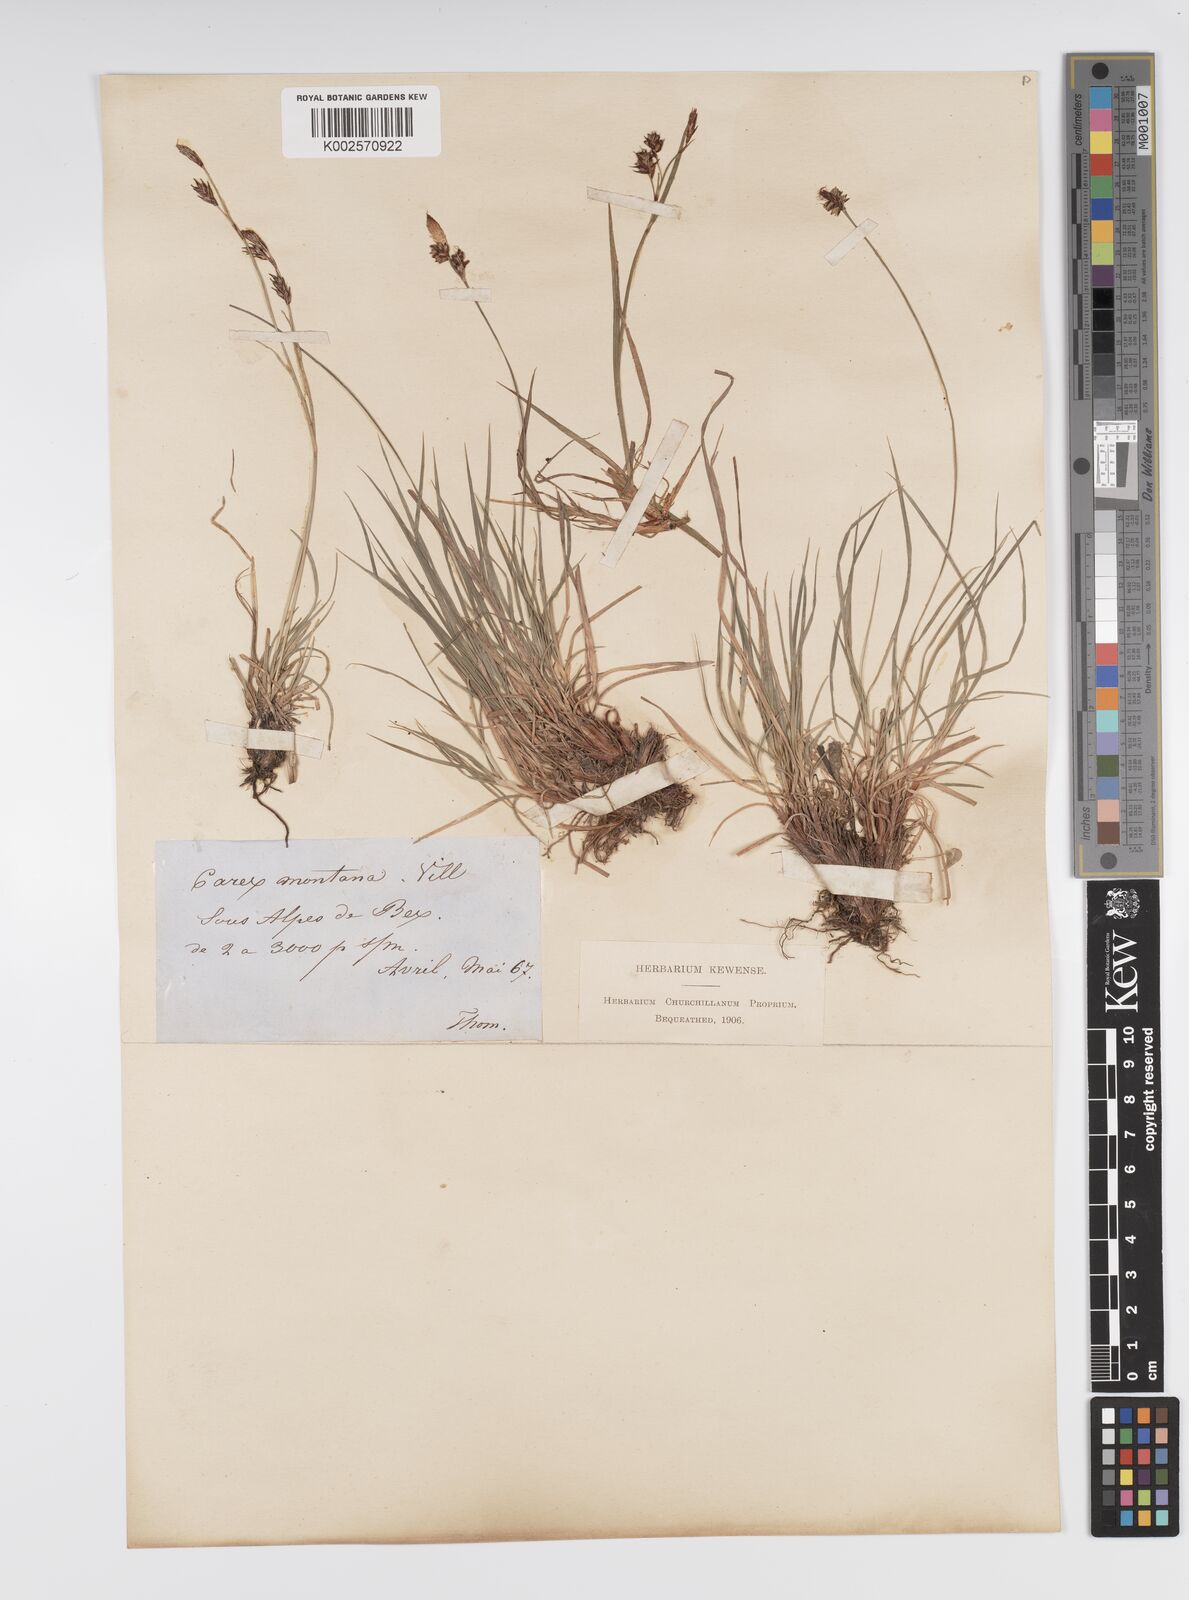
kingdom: Plantae
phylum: Tracheophyta
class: Liliopsida
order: Poales
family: Cyperaceae
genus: Carex
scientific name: Carex montana
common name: Soft-leaved sedge
